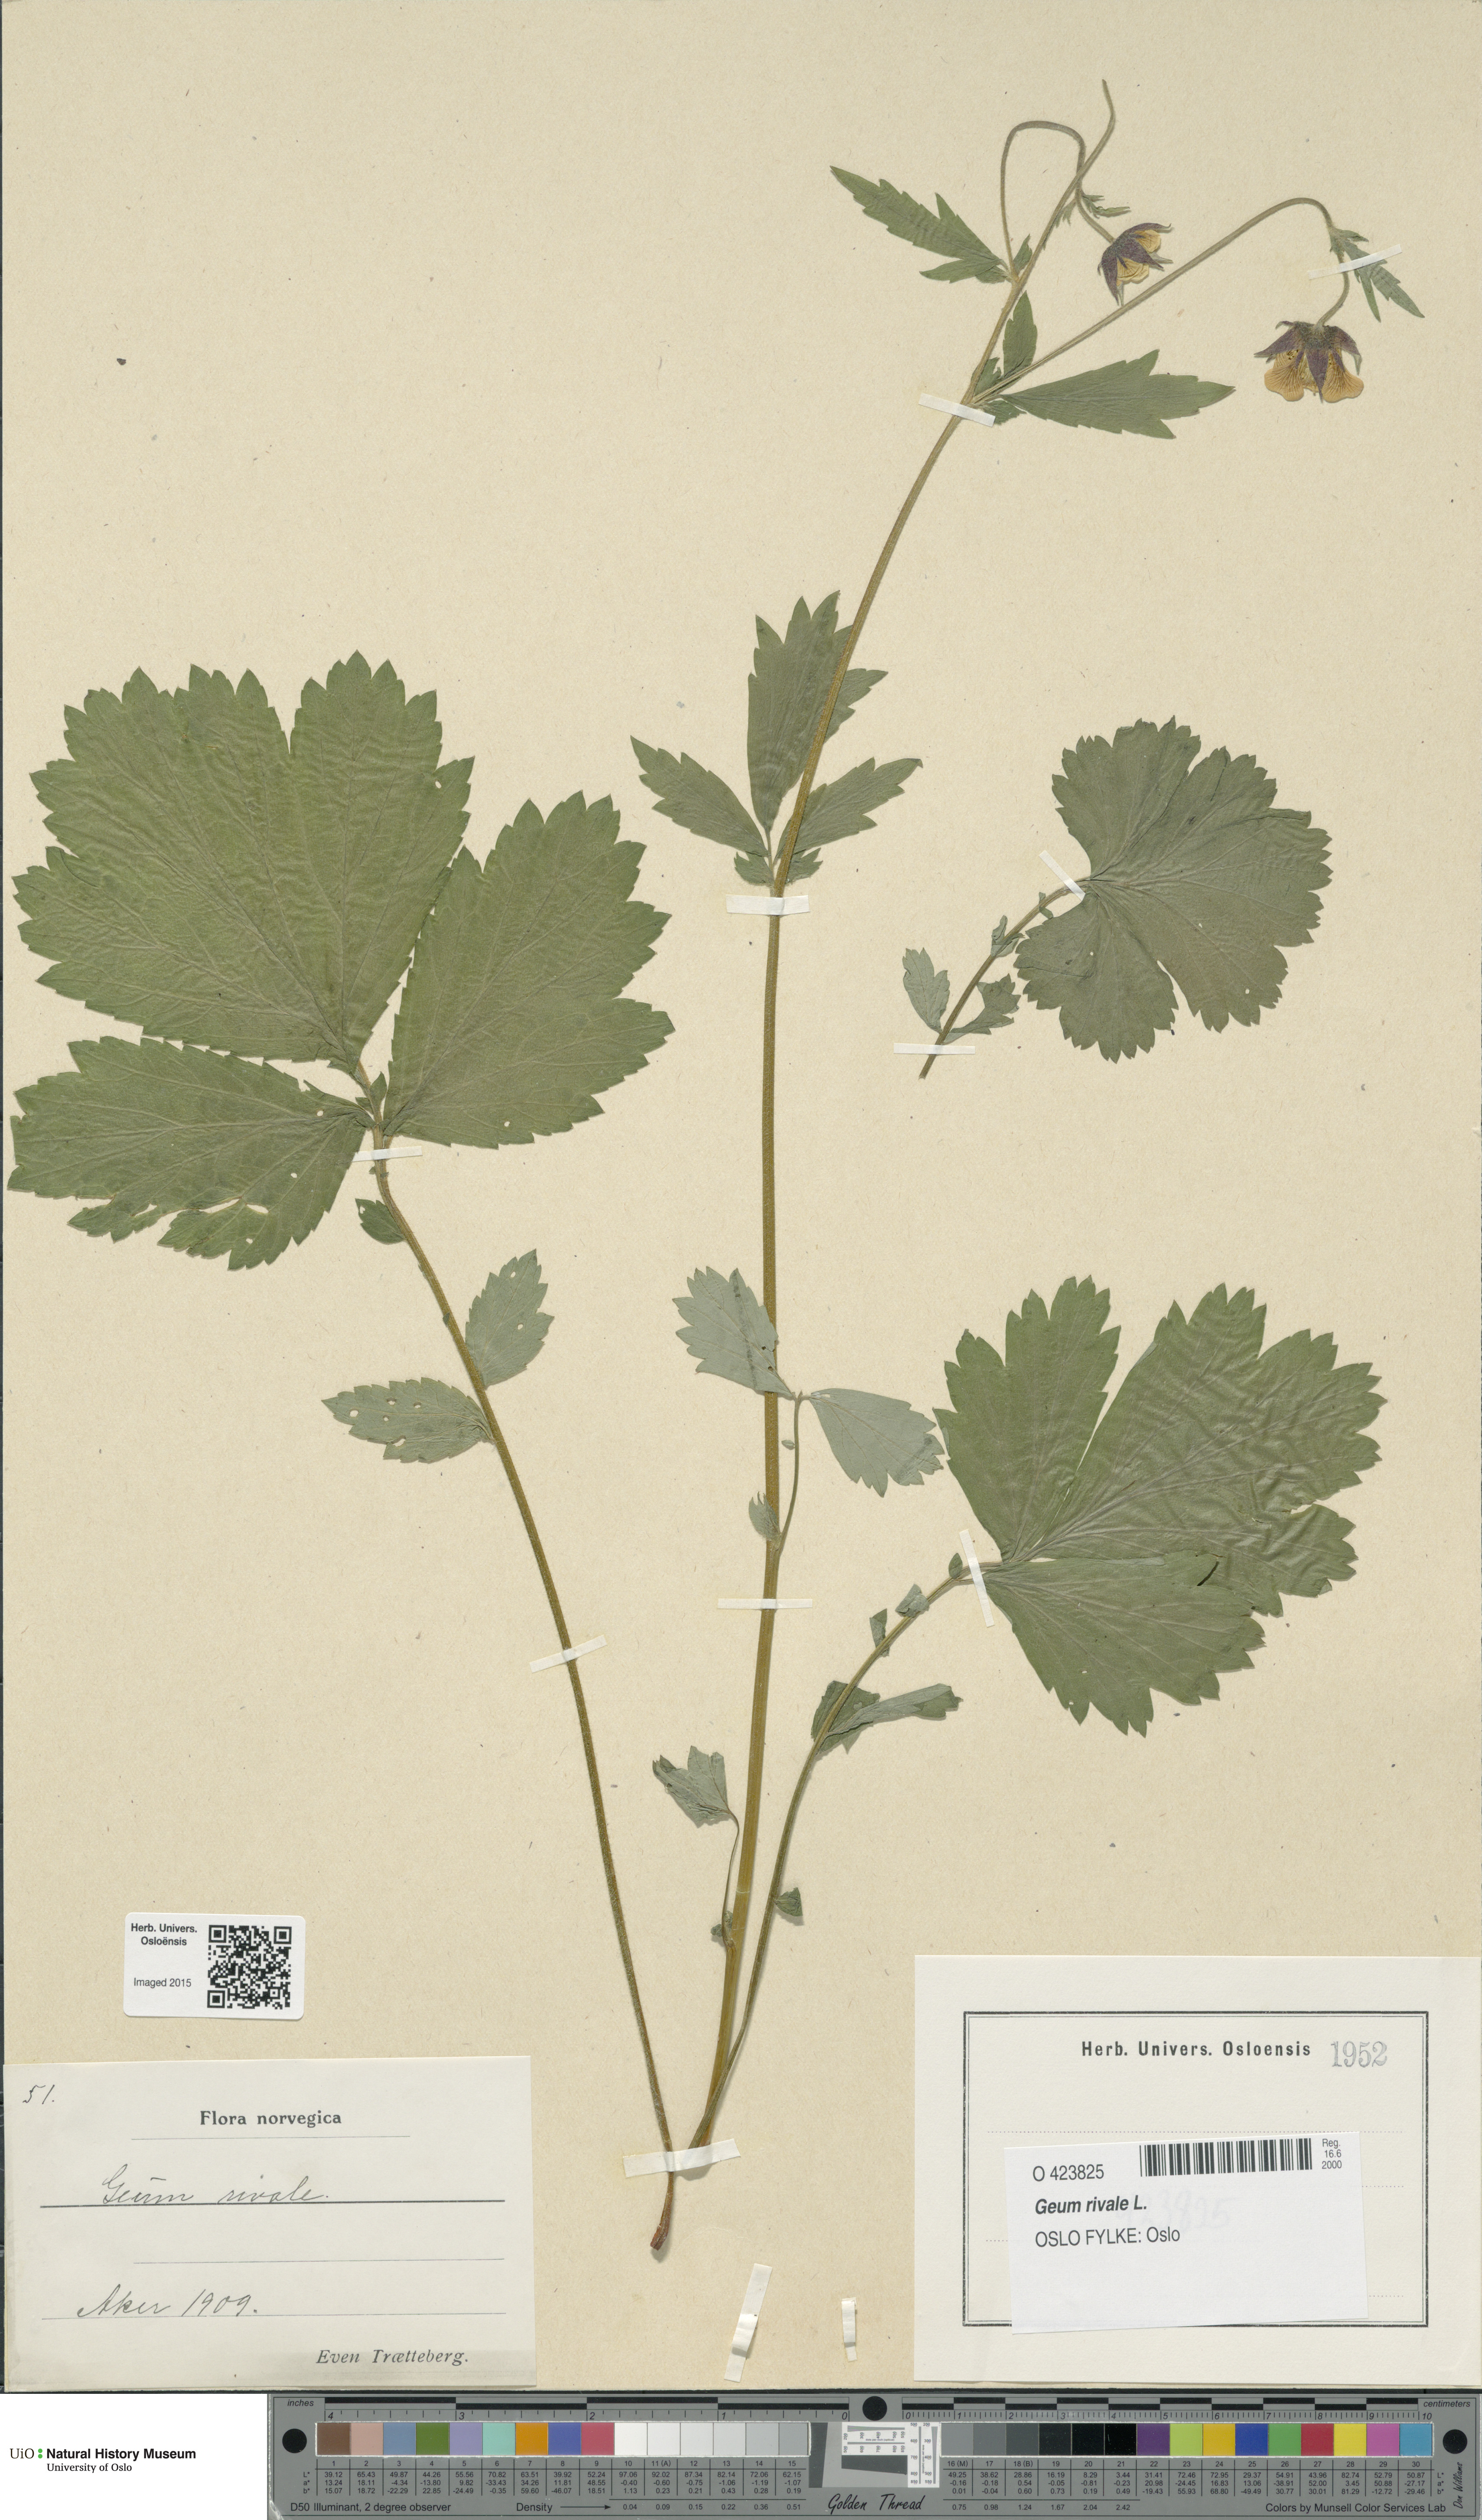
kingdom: Plantae
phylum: Tracheophyta
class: Magnoliopsida
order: Rosales
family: Rosaceae
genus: Geum
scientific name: Geum rivale
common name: Water avens
